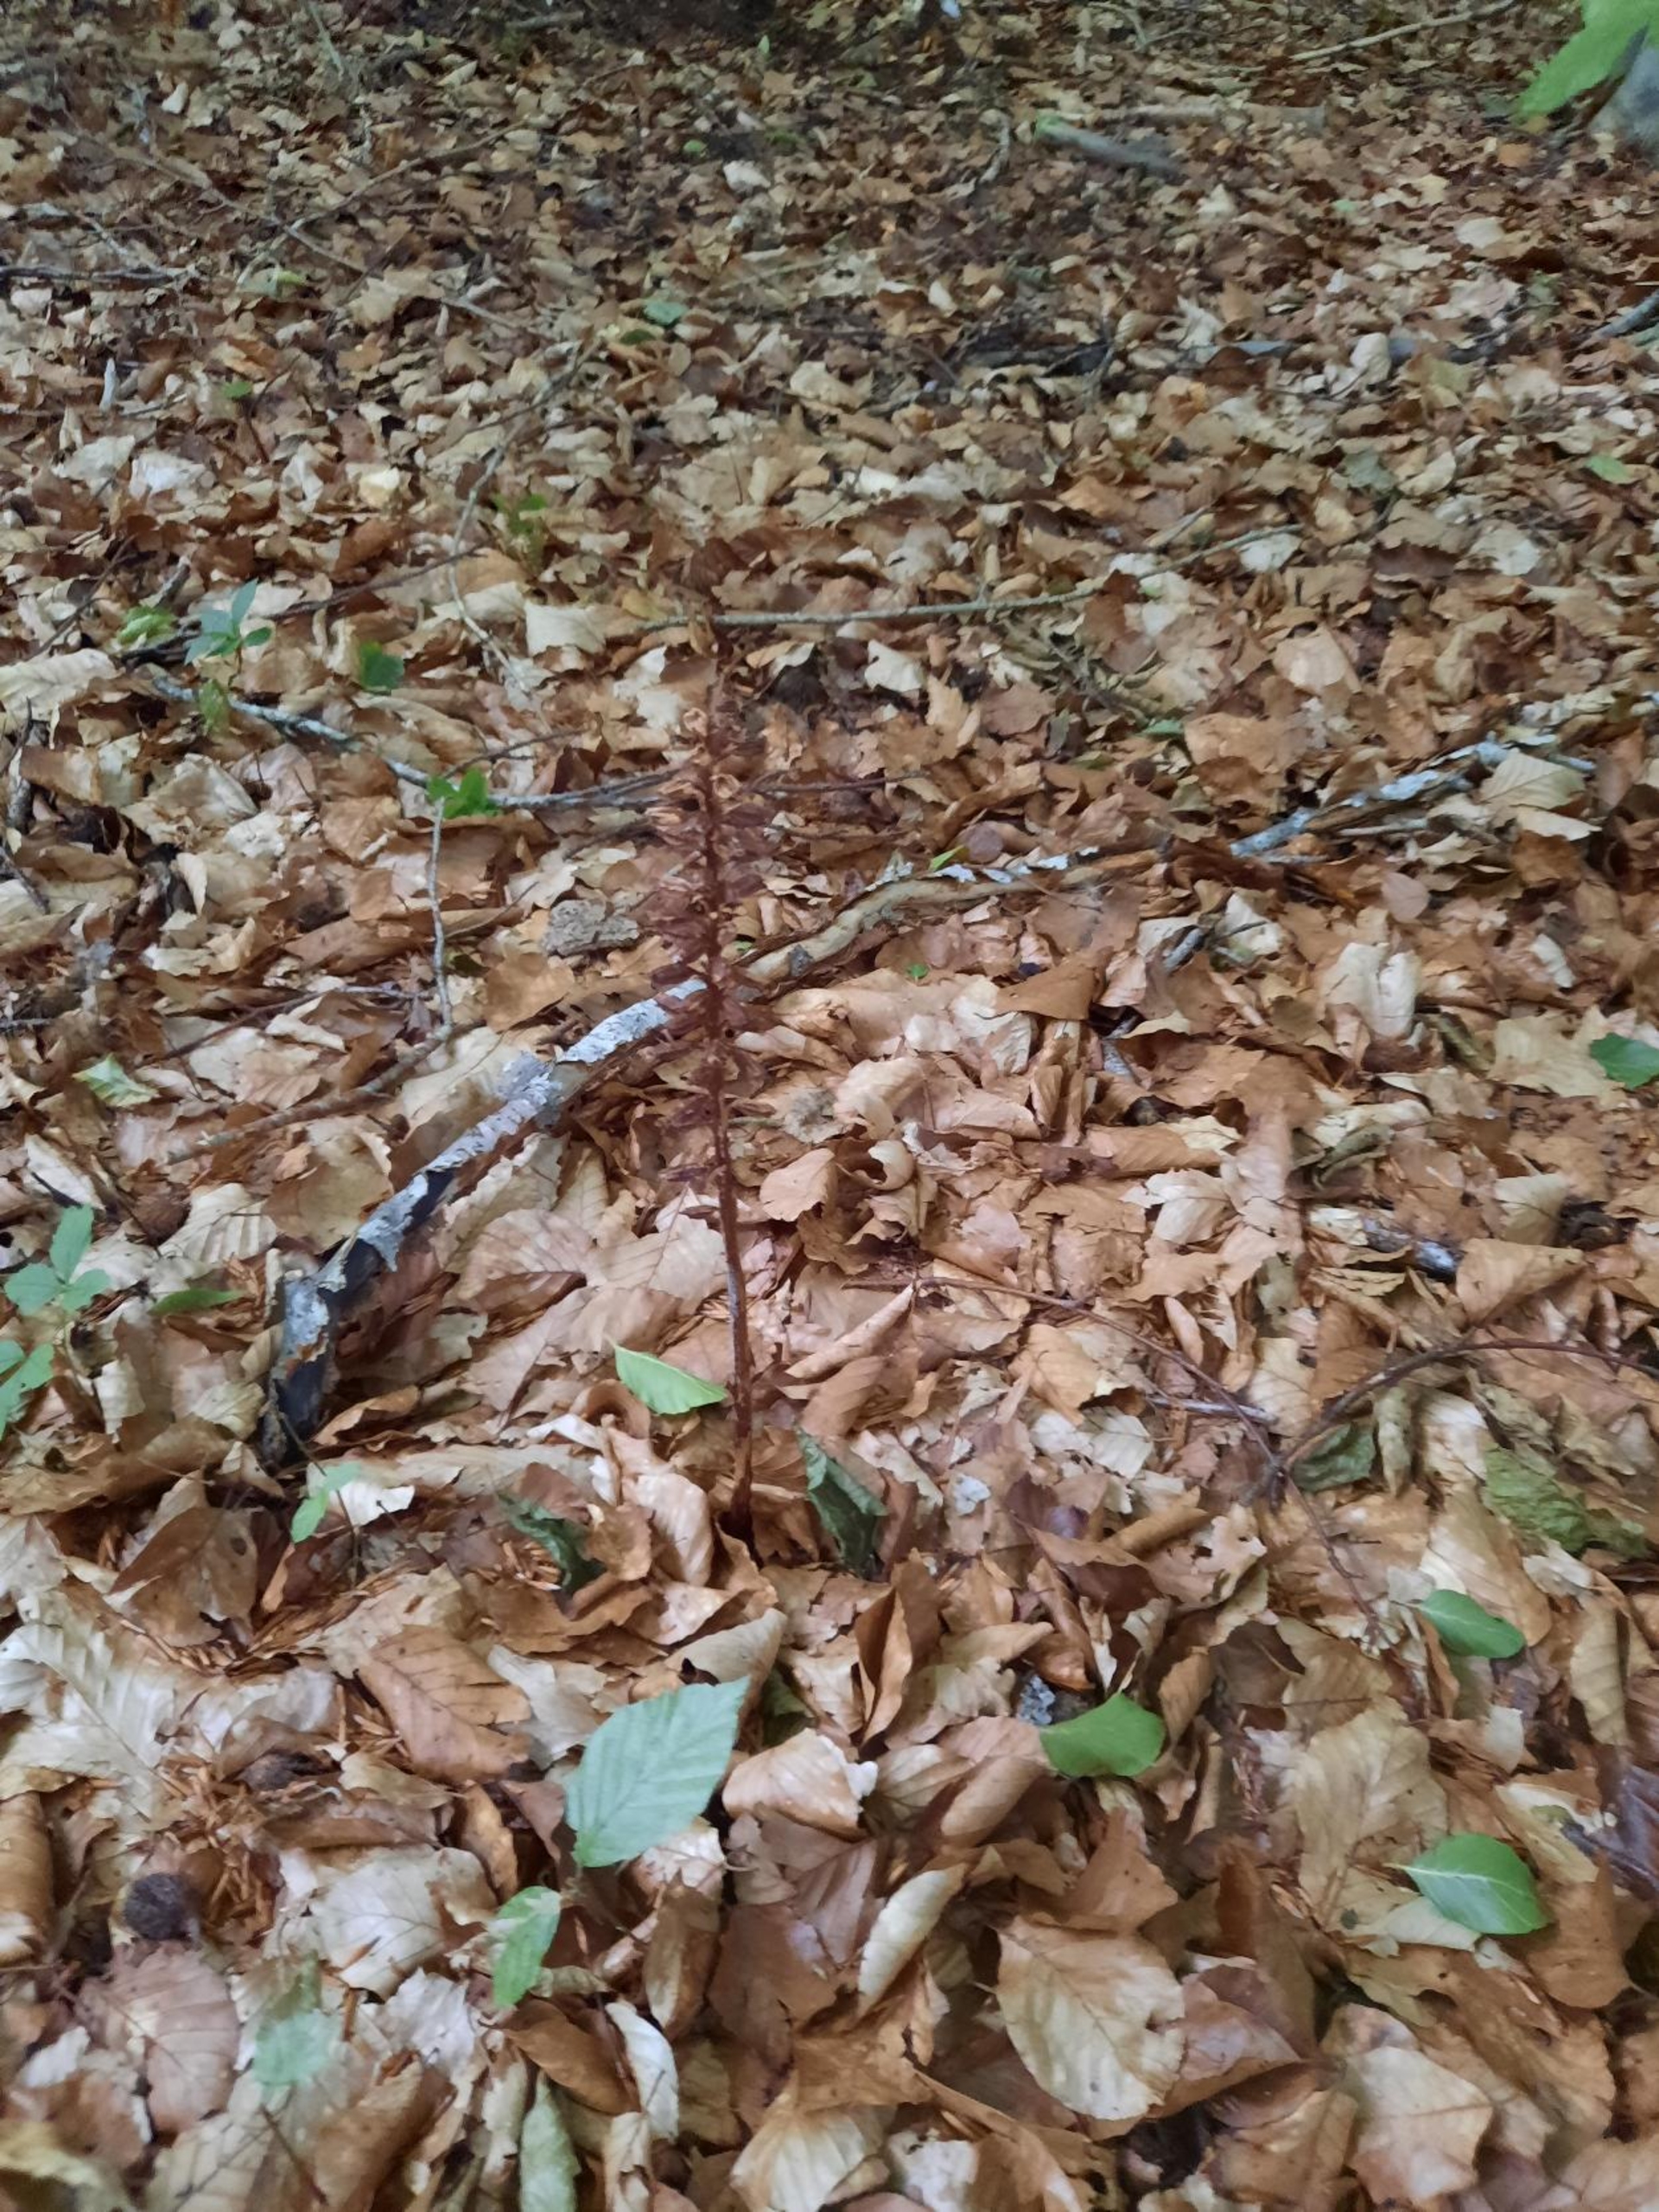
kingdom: Plantae
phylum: Tracheophyta
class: Liliopsida
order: Asparagales
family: Orchidaceae
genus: Neottia
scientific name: Neottia nidus-avis
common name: Rederod
